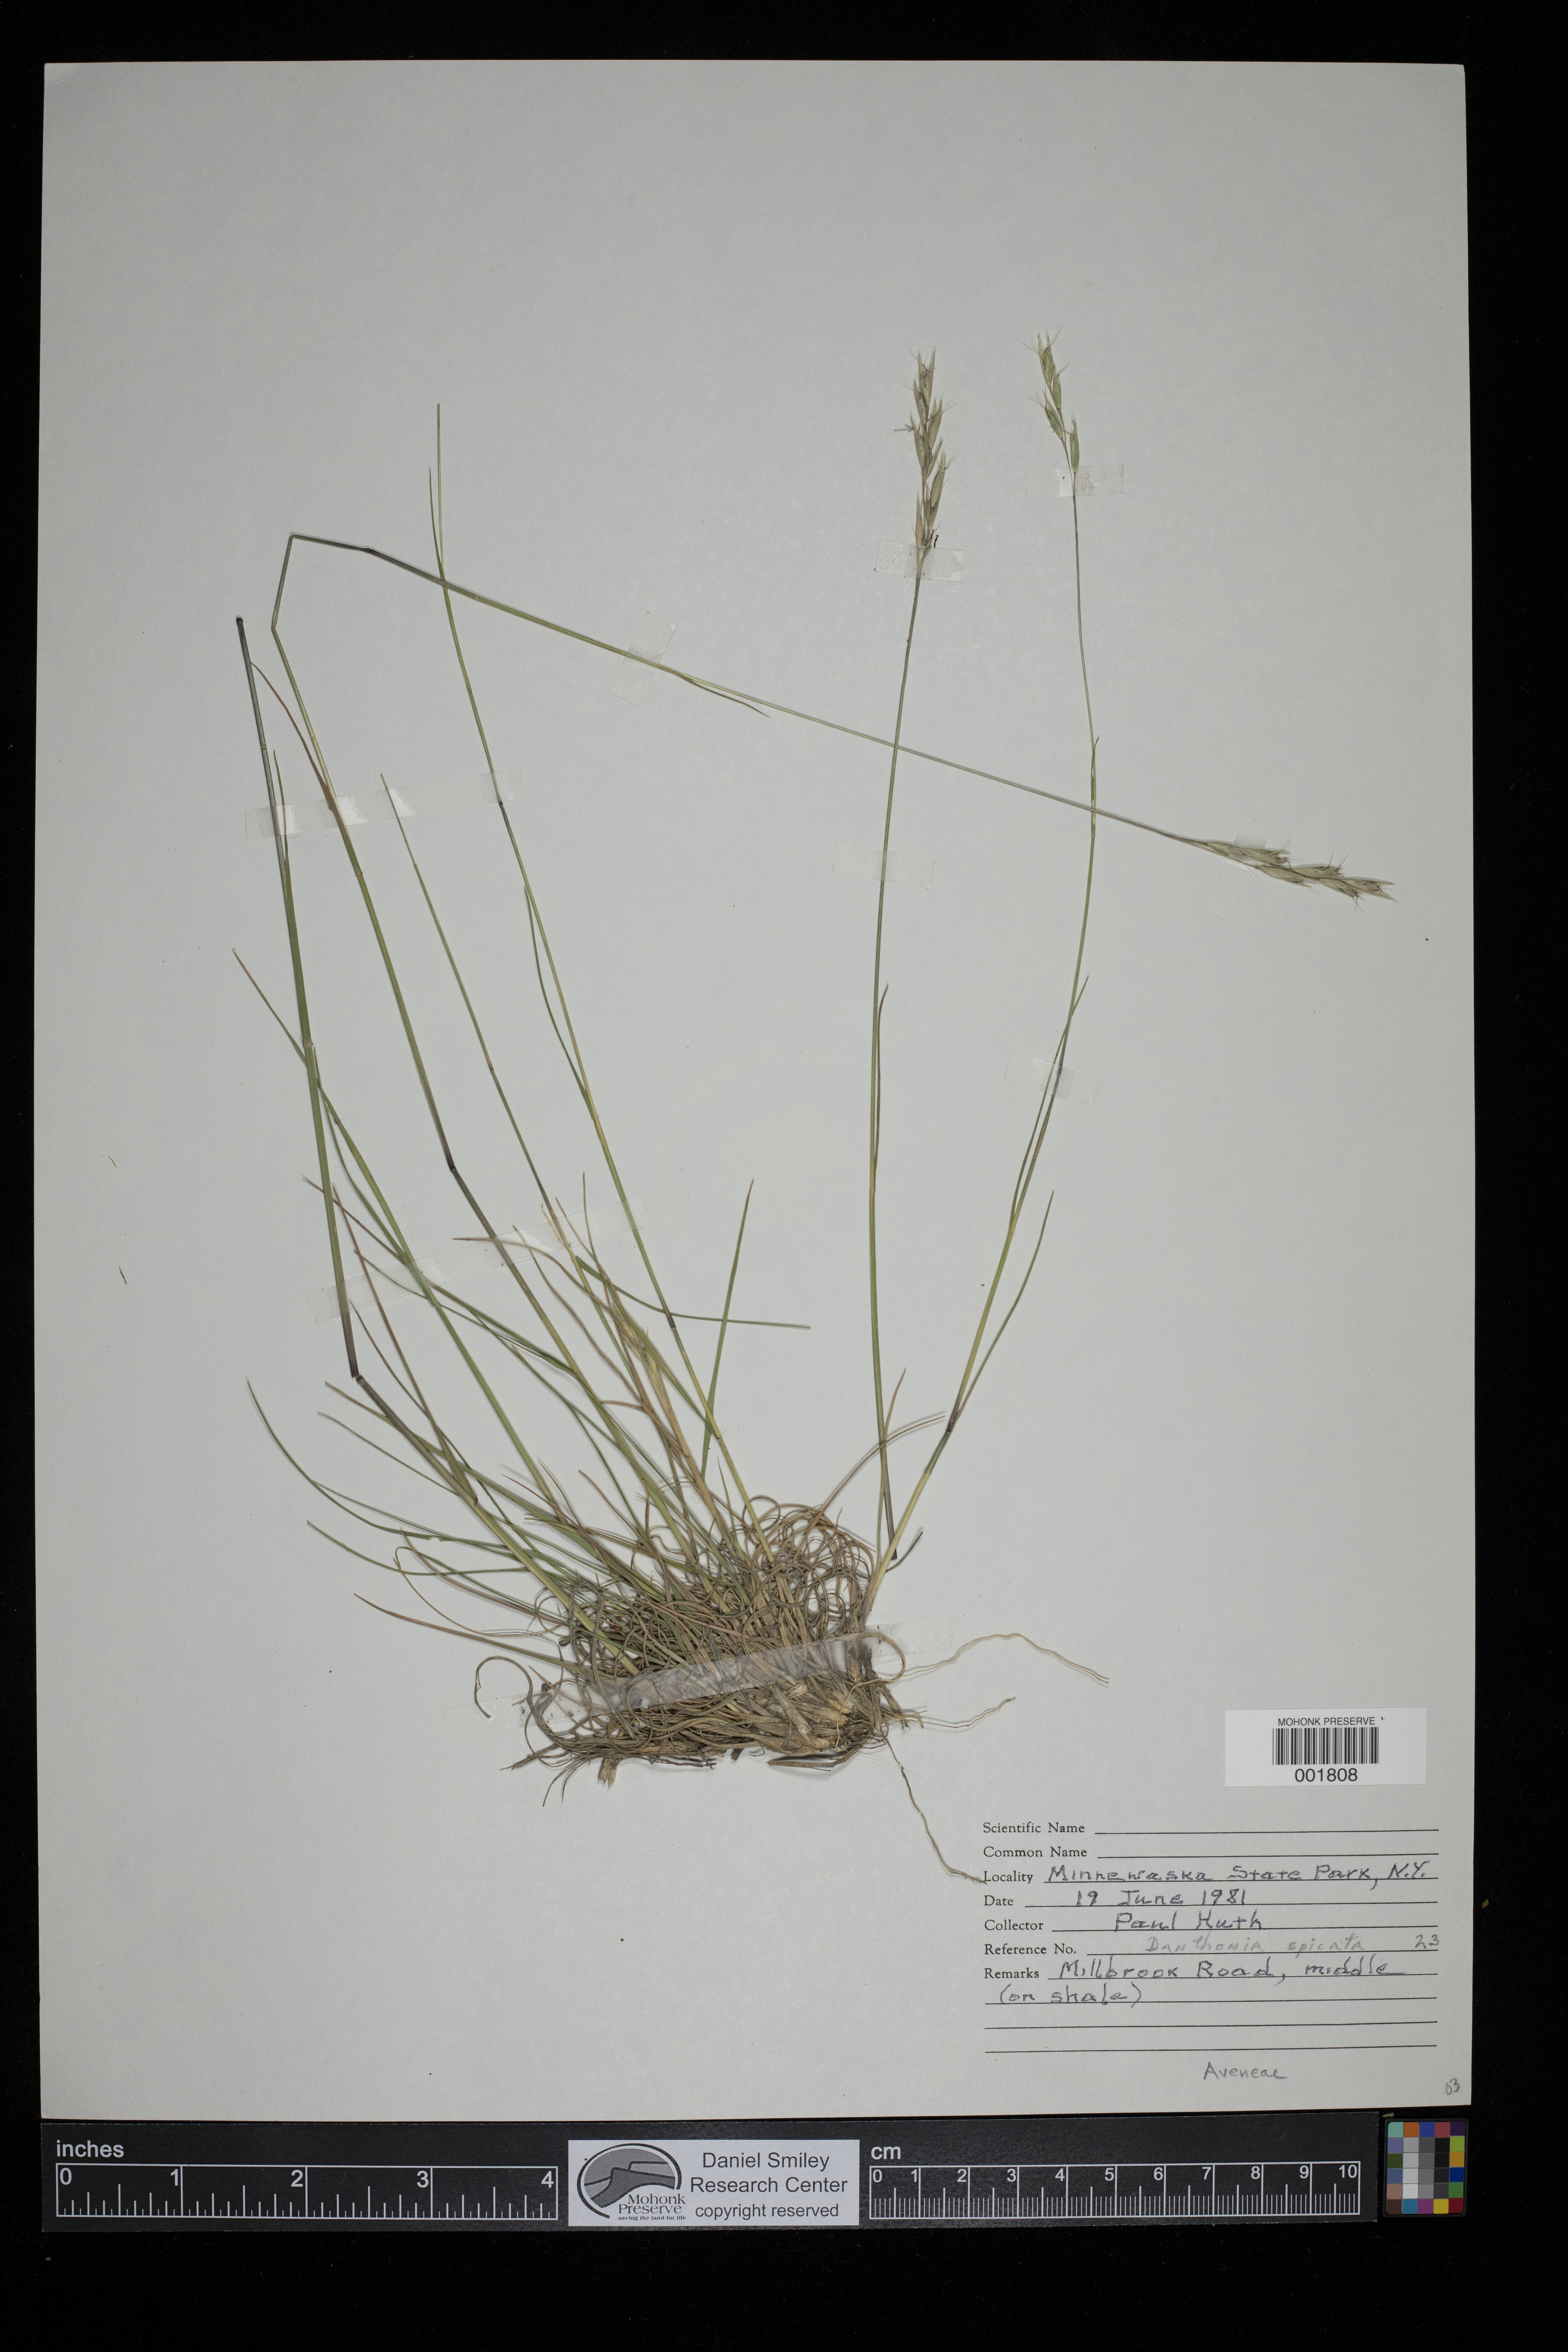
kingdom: Plantae
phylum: Tracheophyta
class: Liliopsida
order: Poales
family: Poaceae
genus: Danthonia
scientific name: Danthonia spicata
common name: Common wild oatgrass
